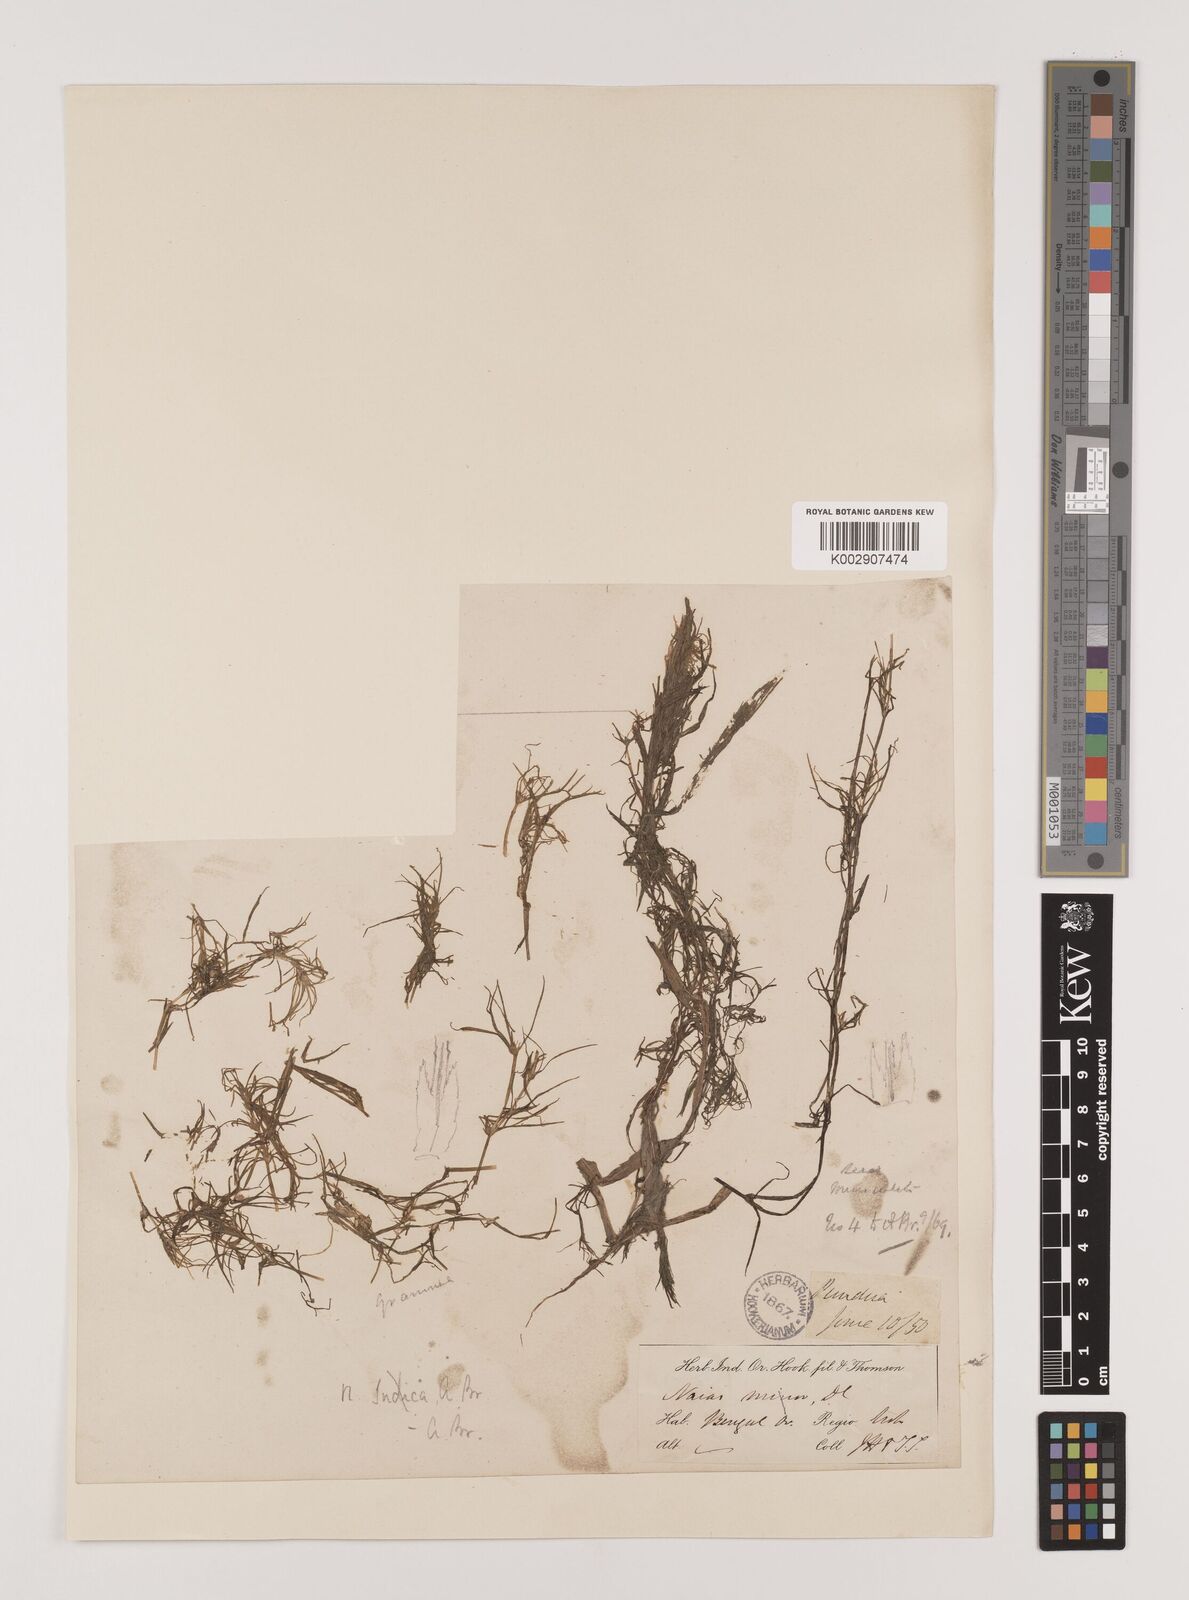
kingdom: Plantae
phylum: Tracheophyta
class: Liliopsida
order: Alismatales
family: Hydrocharitaceae
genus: Najas
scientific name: Najas graminea
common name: Ricefield waternymph
